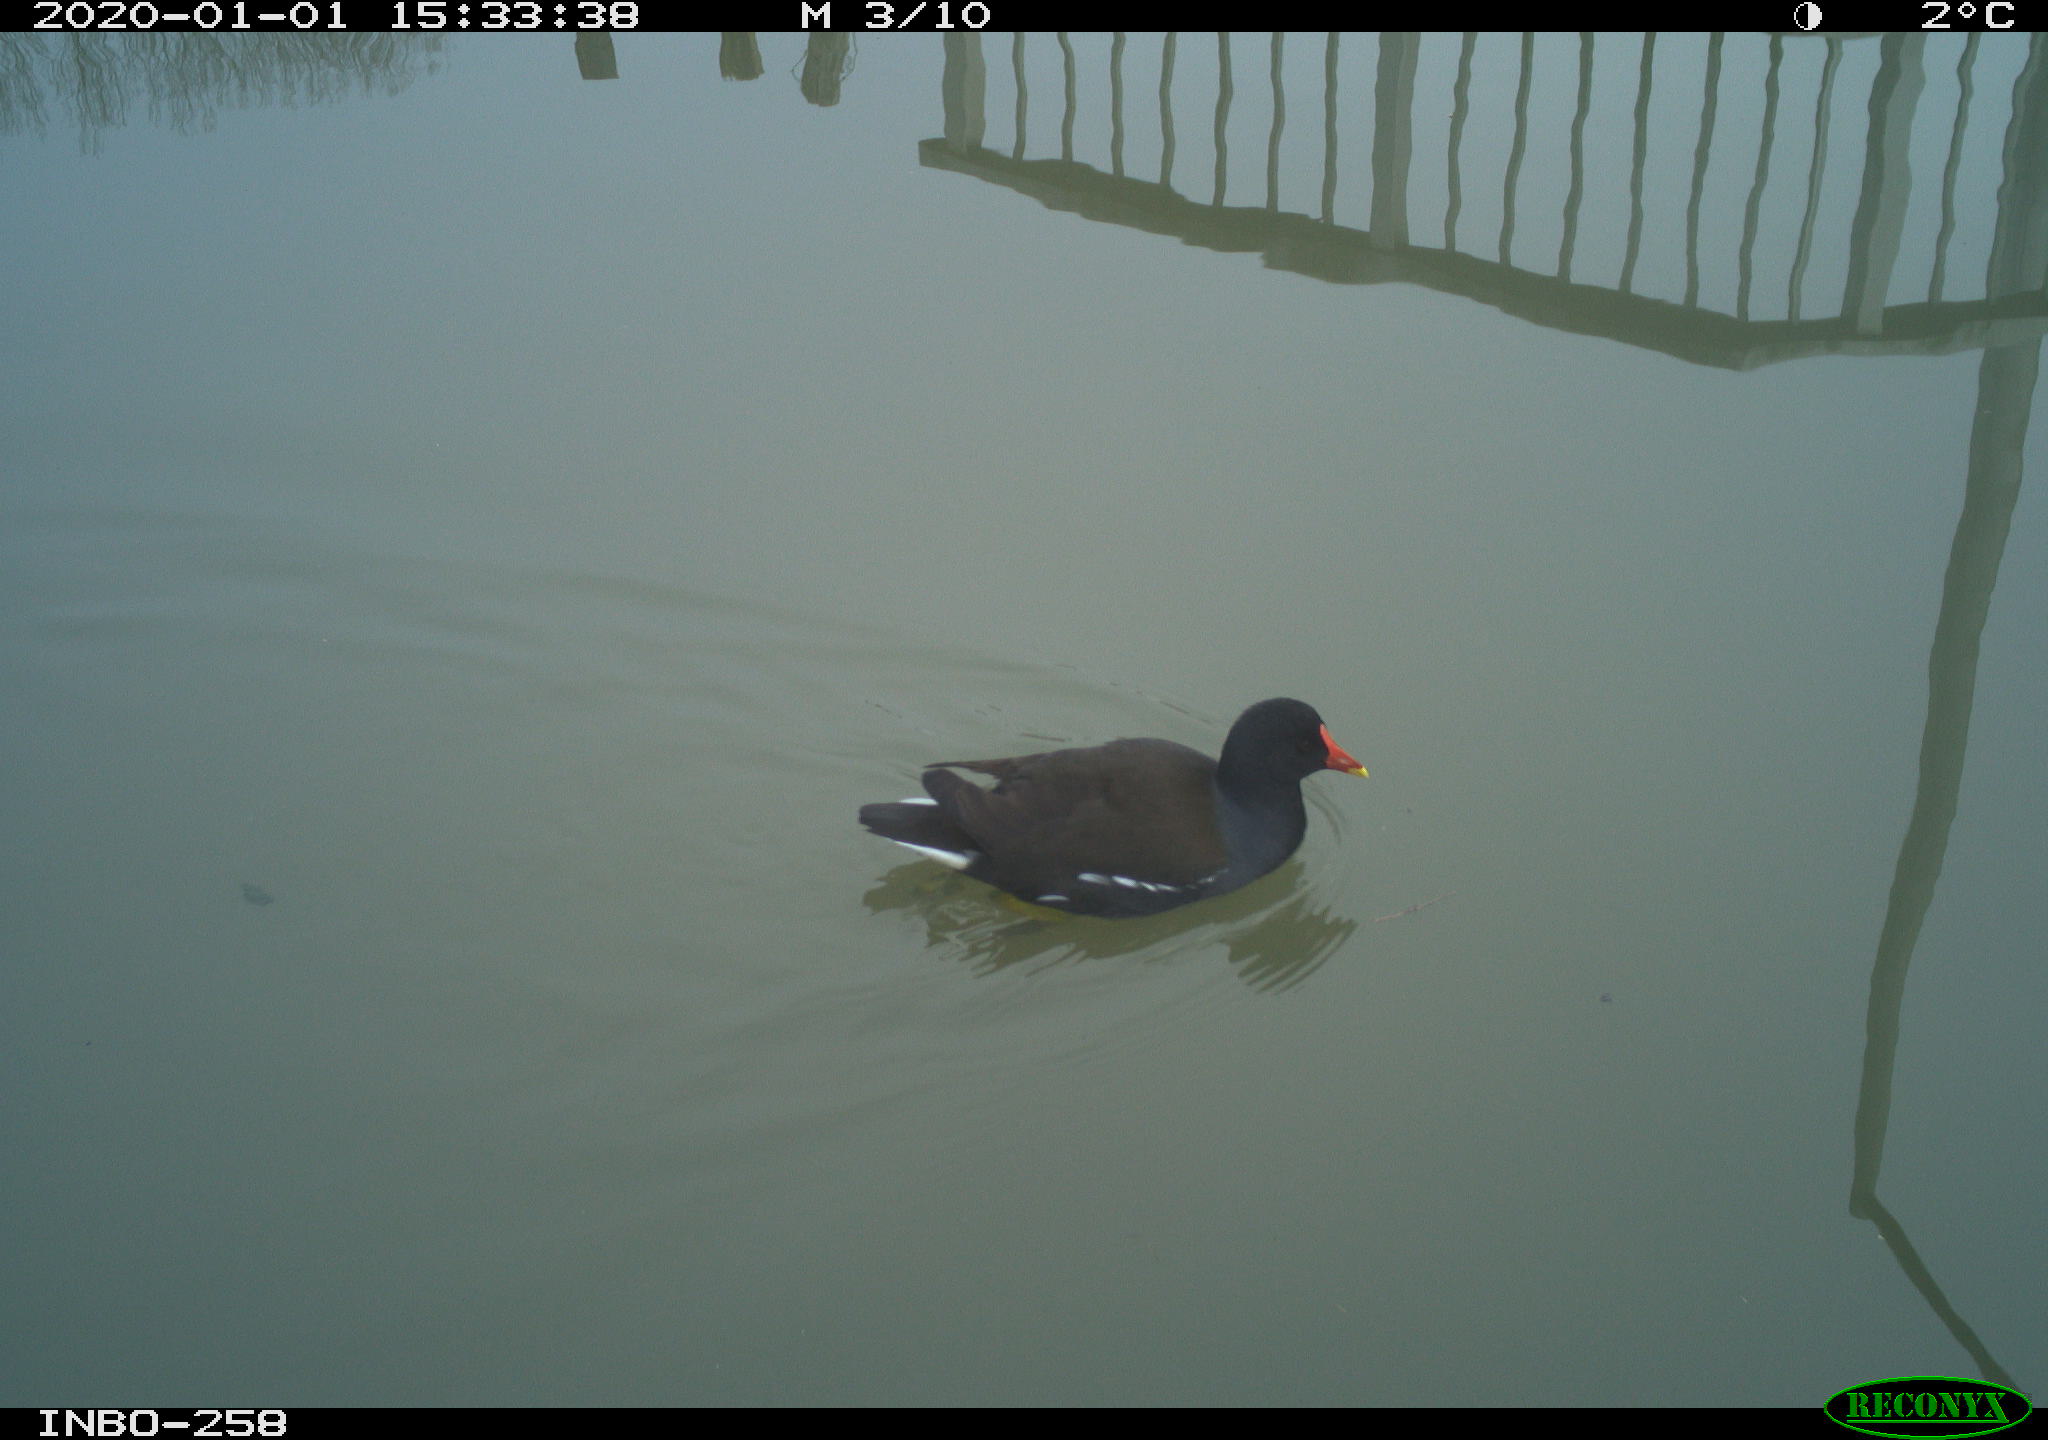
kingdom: Animalia
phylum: Chordata
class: Aves
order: Gruiformes
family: Rallidae
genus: Gallinula
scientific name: Gallinula chloropus
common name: Common moorhen
